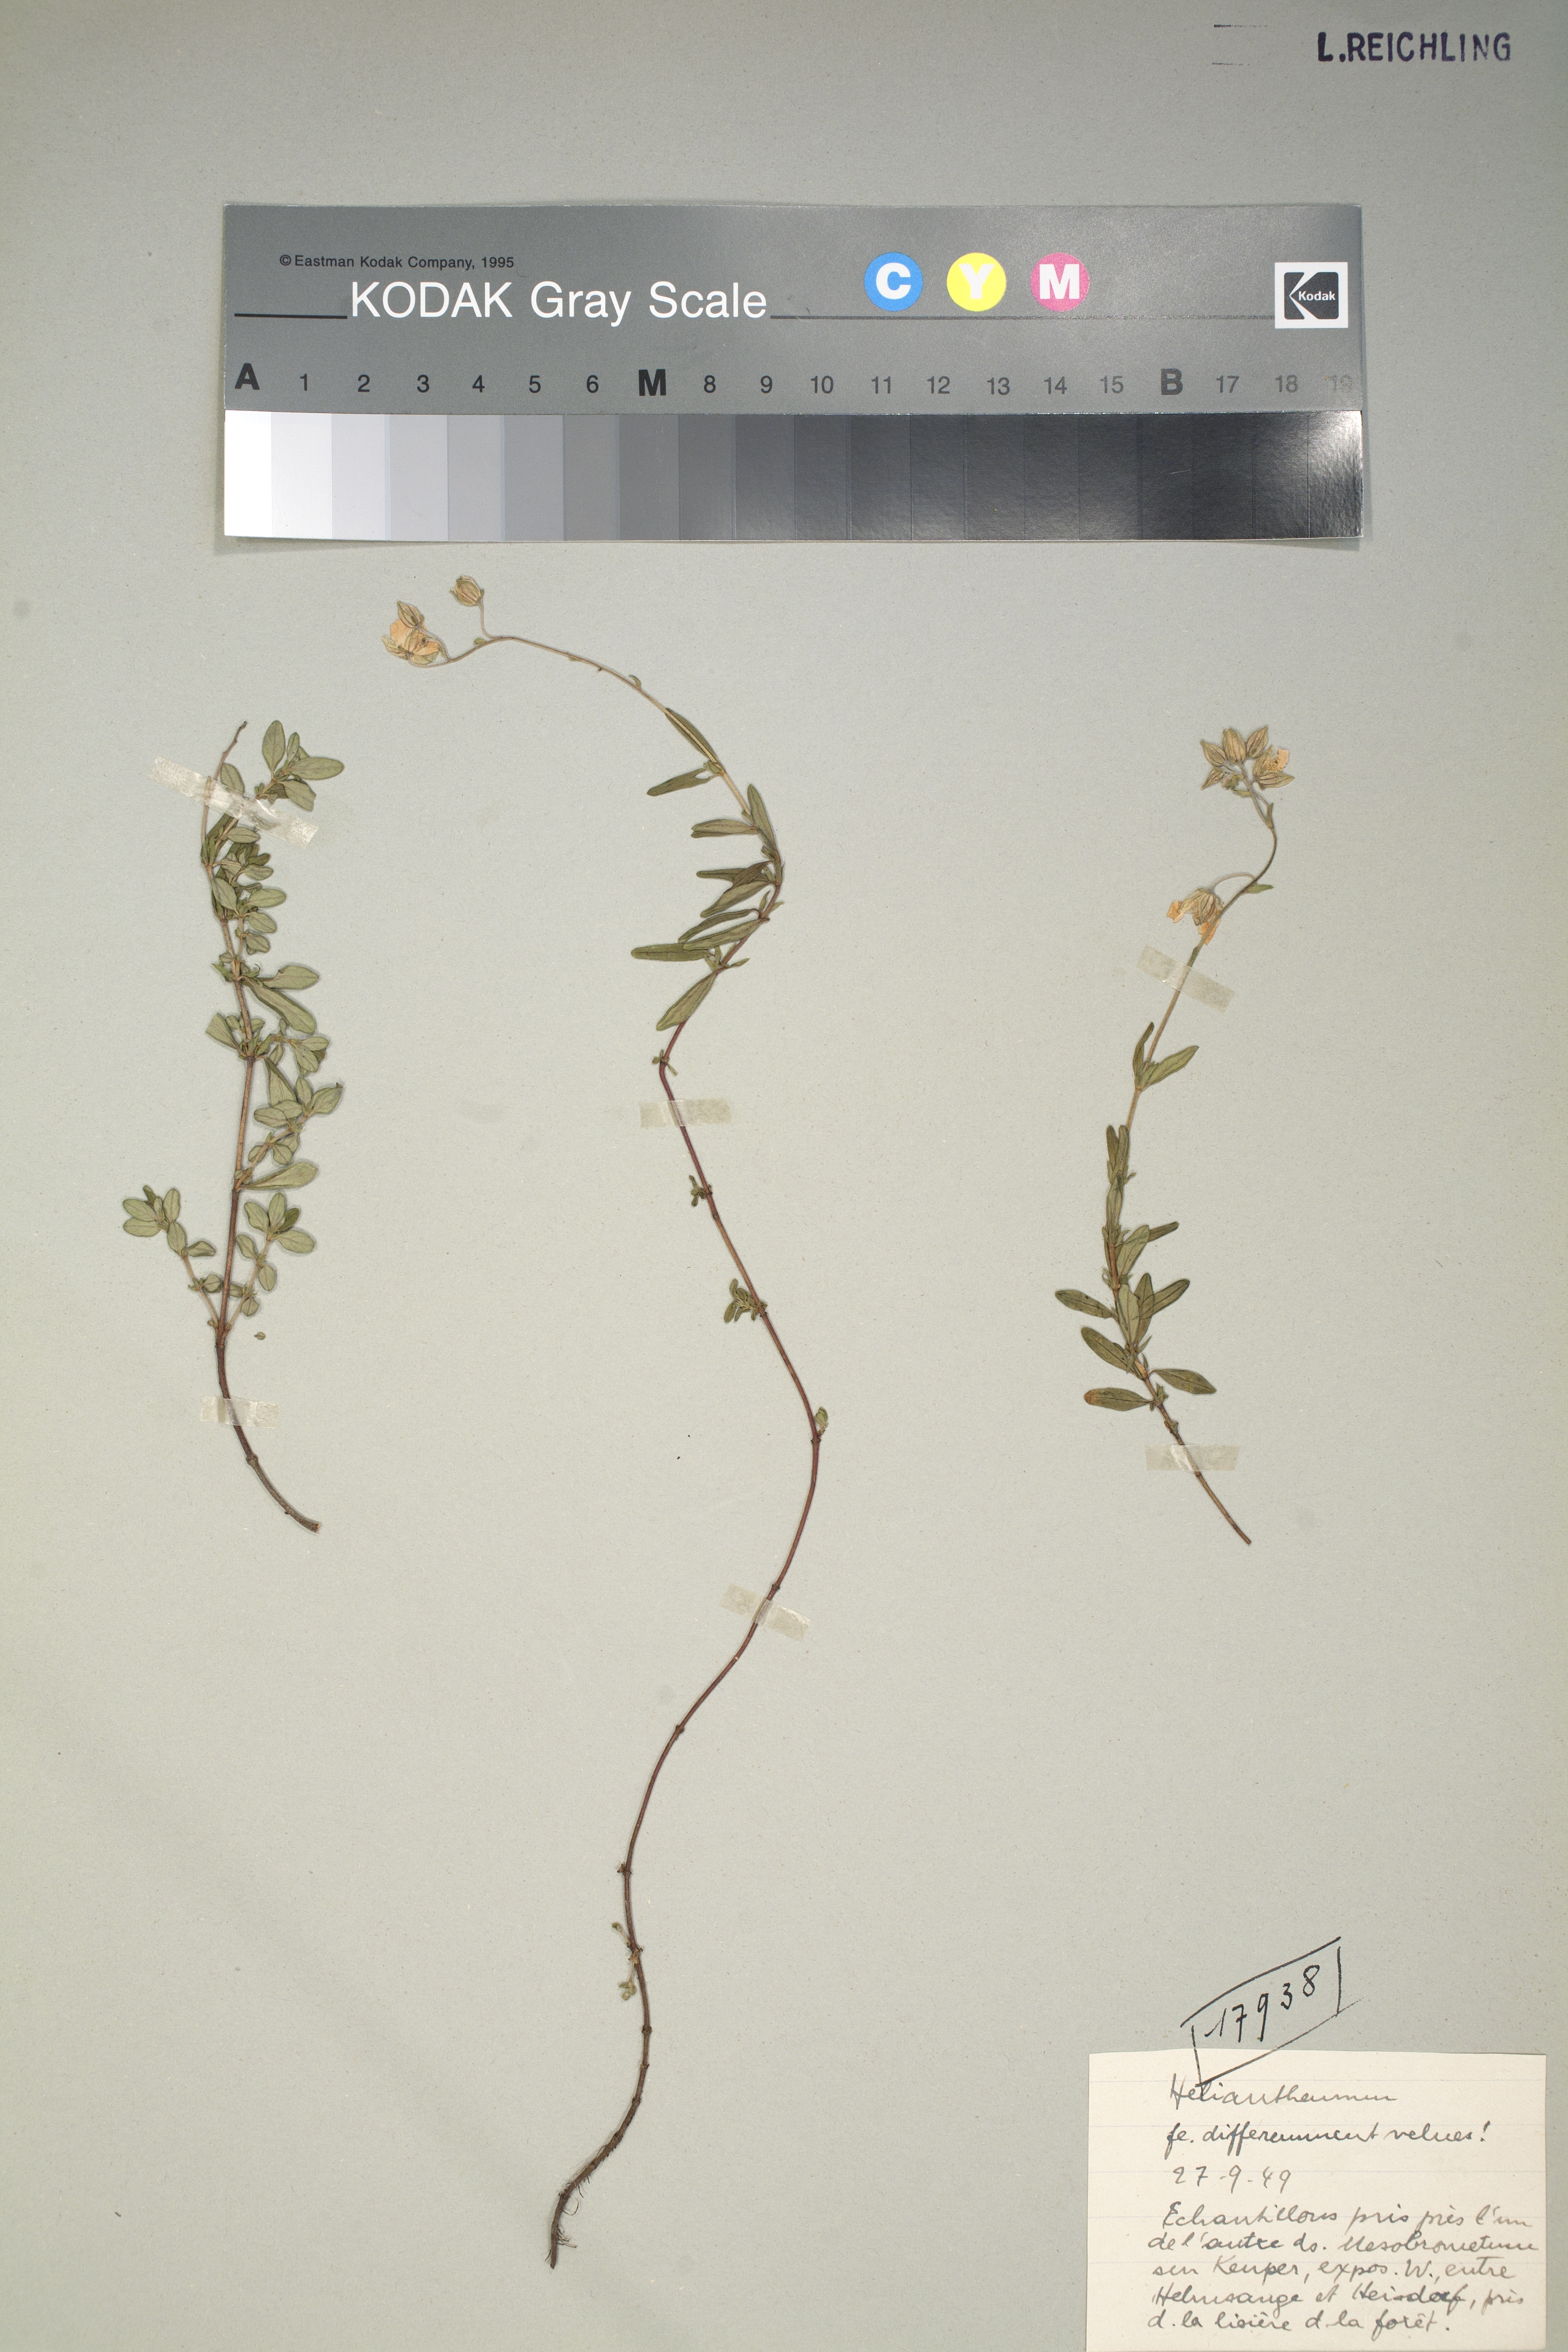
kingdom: Plantae
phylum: Tracheophyta
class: Magnoliopsida
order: Malvales
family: Cistaceae
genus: Helianthemum
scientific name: Helianthemum
